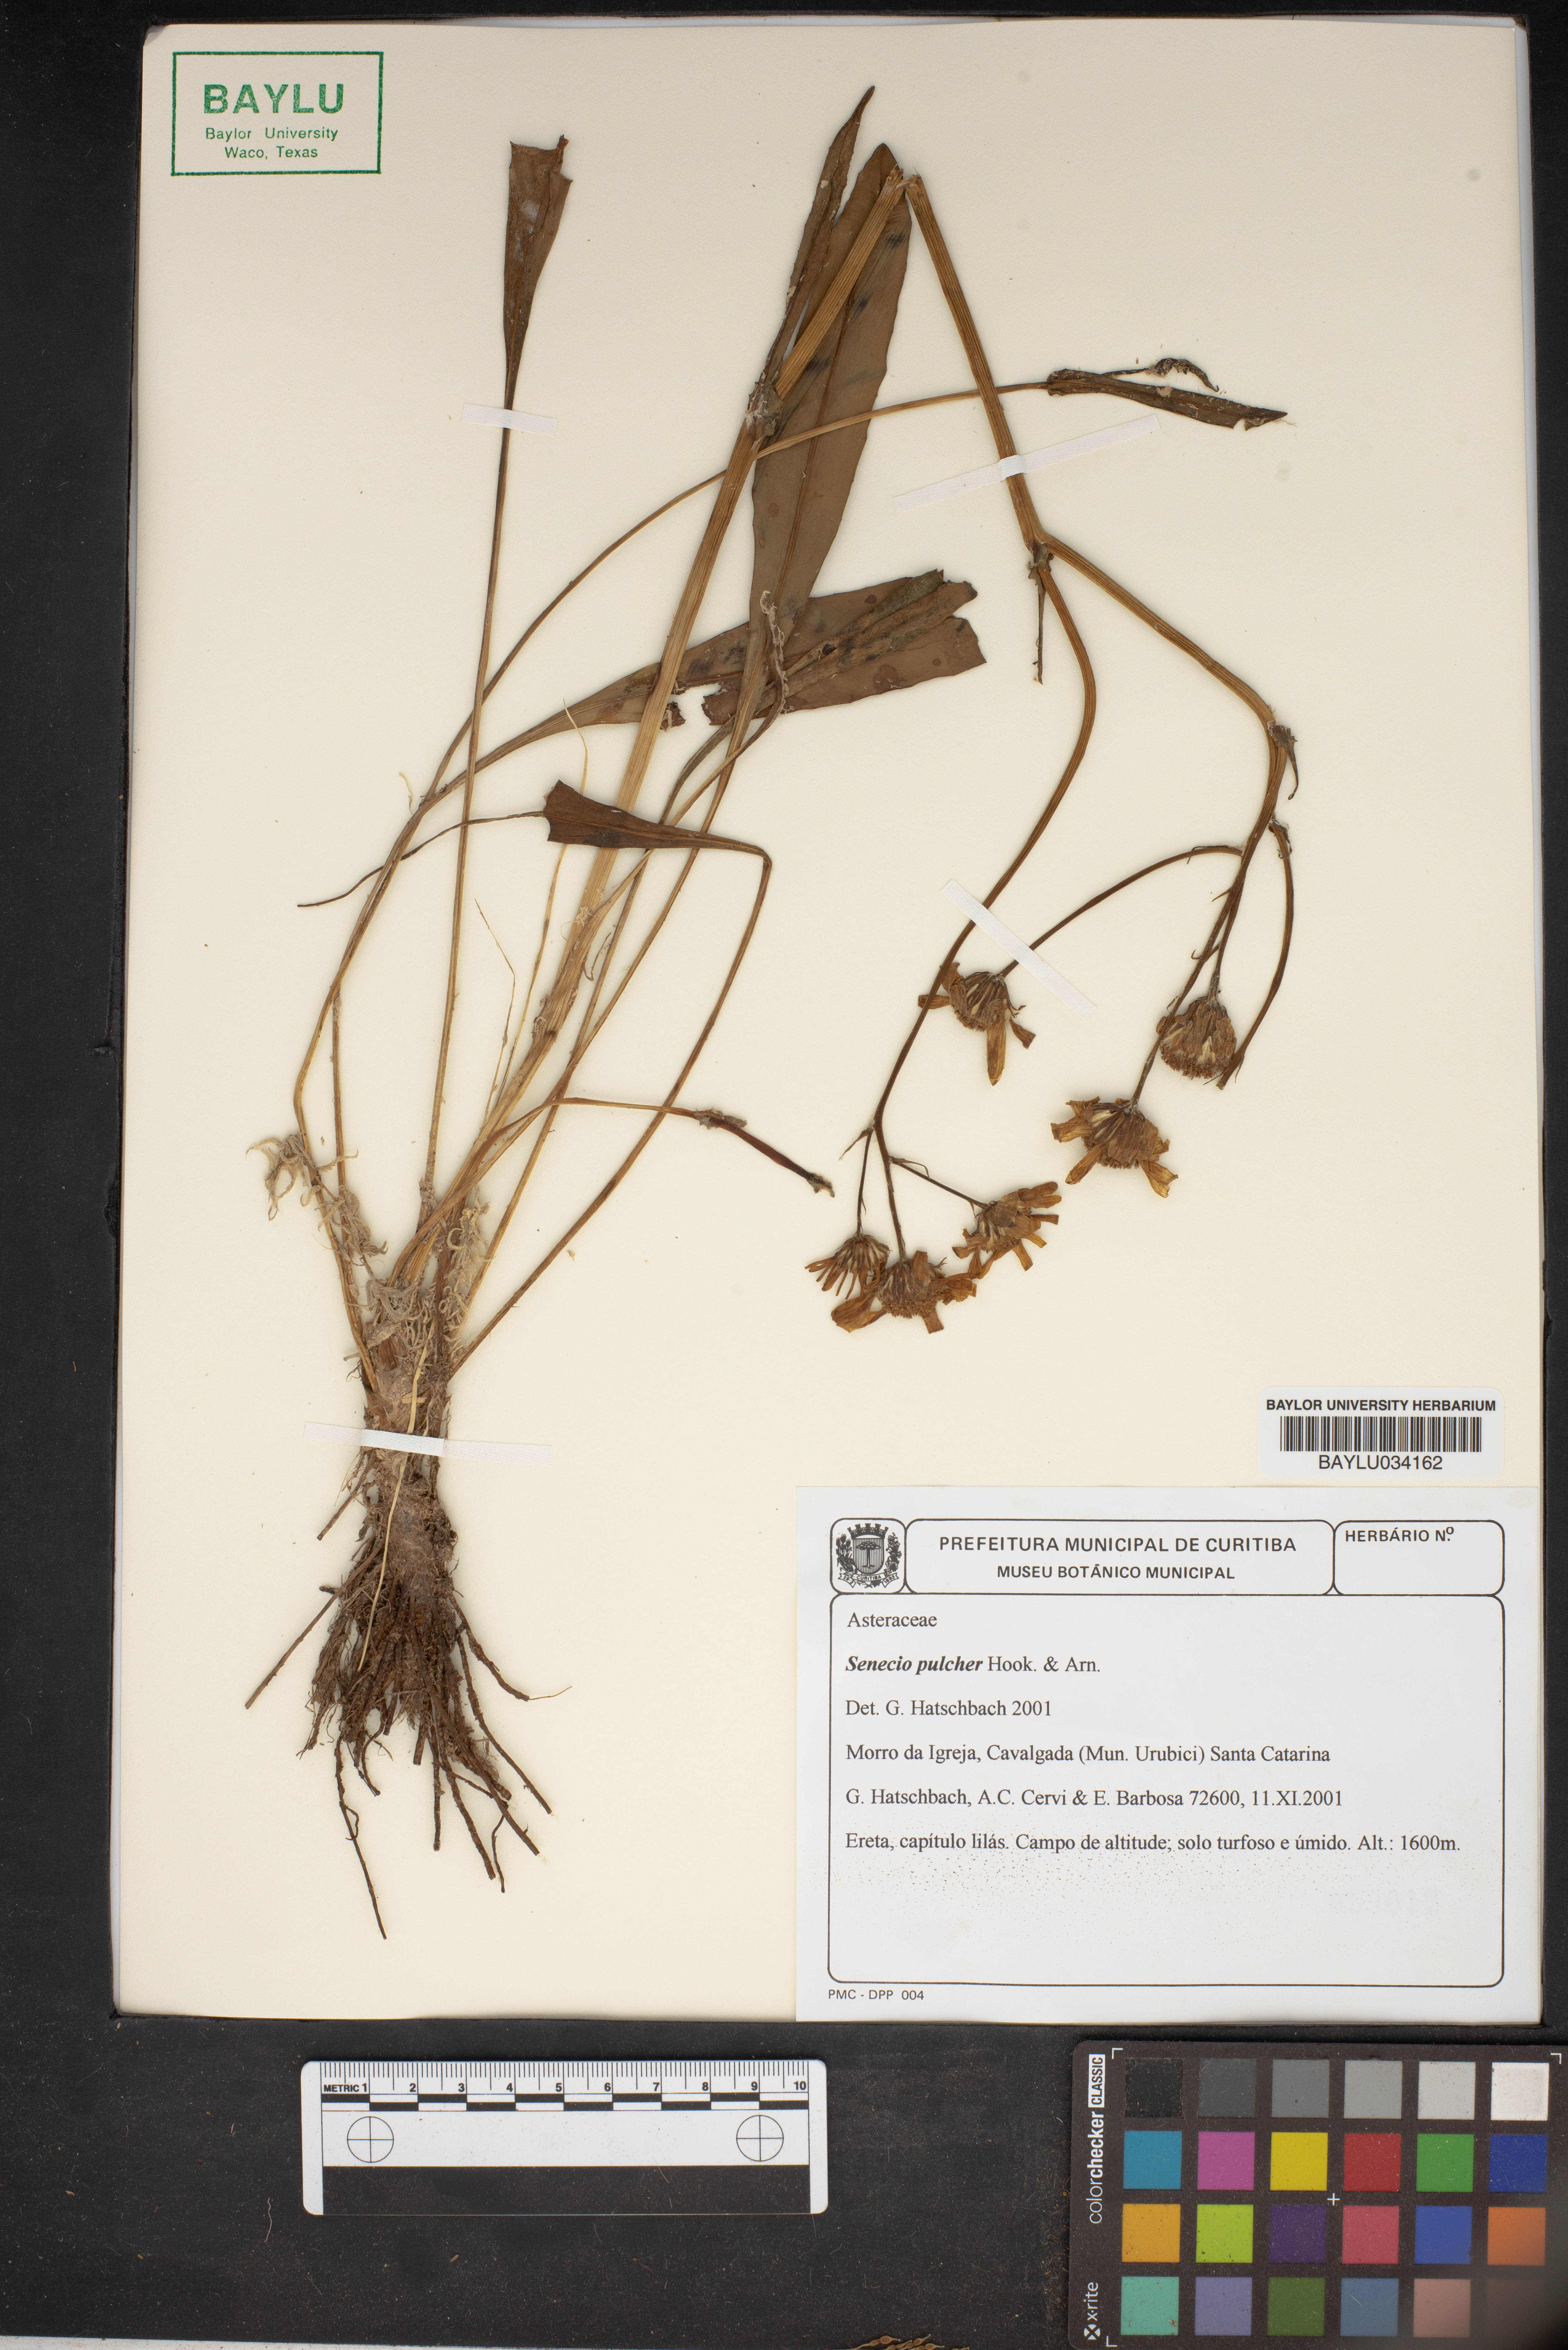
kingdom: Plantae
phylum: Tracheophyta
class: Magnoliopsida
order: Asterales
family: Asteraceae
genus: Senecio
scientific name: Senecio pulcher
